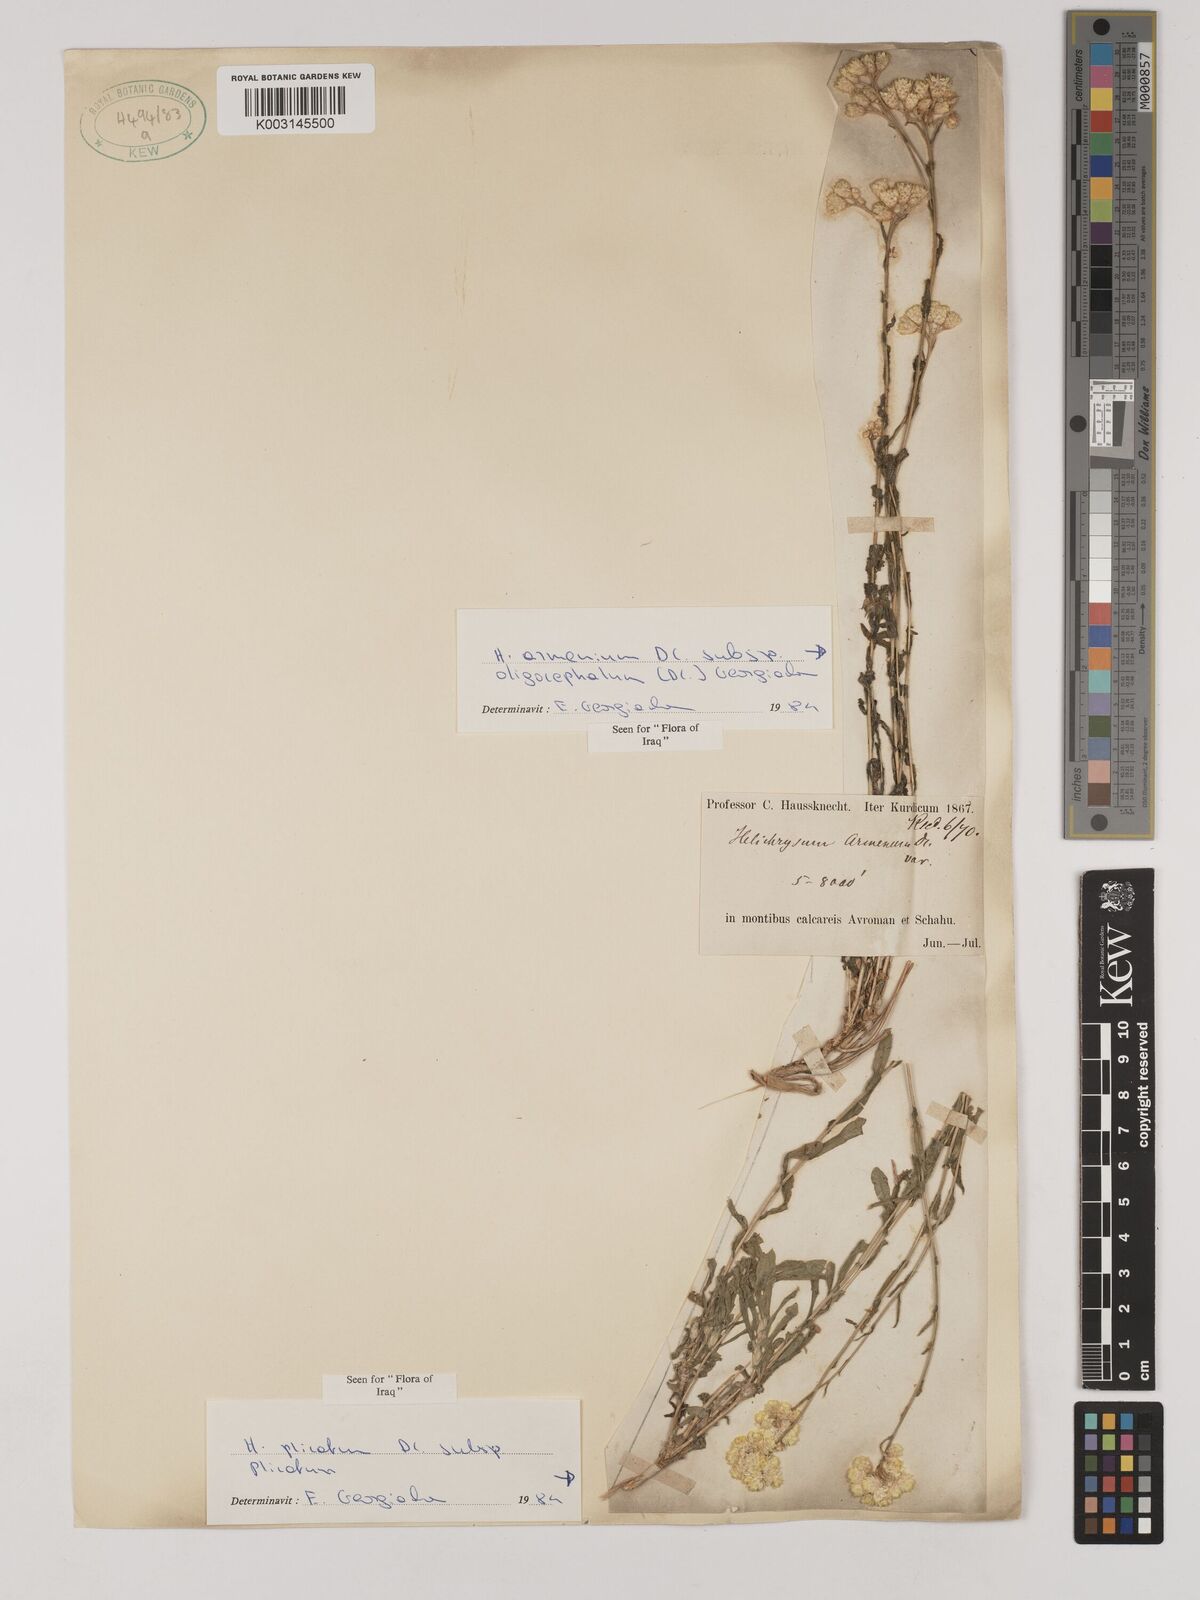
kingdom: Plantae
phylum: Tracheophyta
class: Magnoliopsida
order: Asterales
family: Asteraceae
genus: Helichrysum
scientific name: Helichrysum armenium
